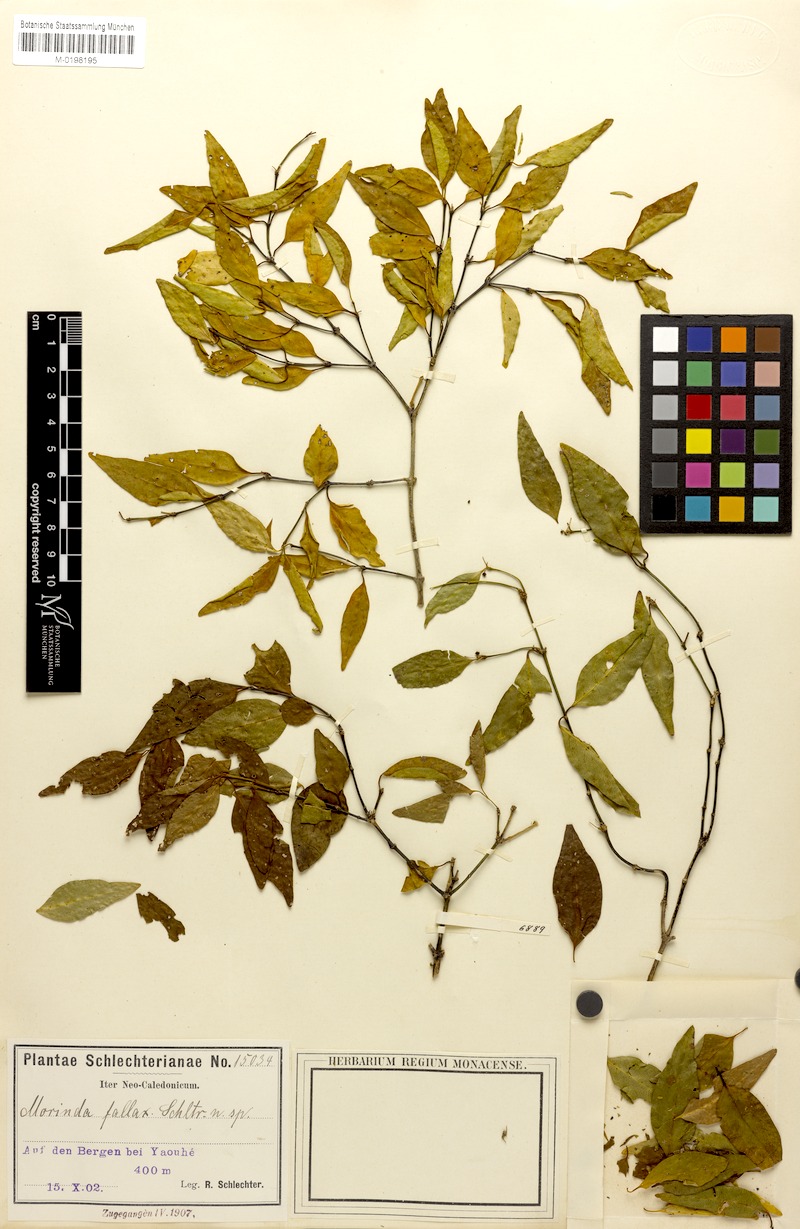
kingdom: Plantae
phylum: Tracheophyta
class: Magnoliopsida
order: Gentianales
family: Rubiaceae
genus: Gynochthodes
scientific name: Gynochthodes phyllireoides
